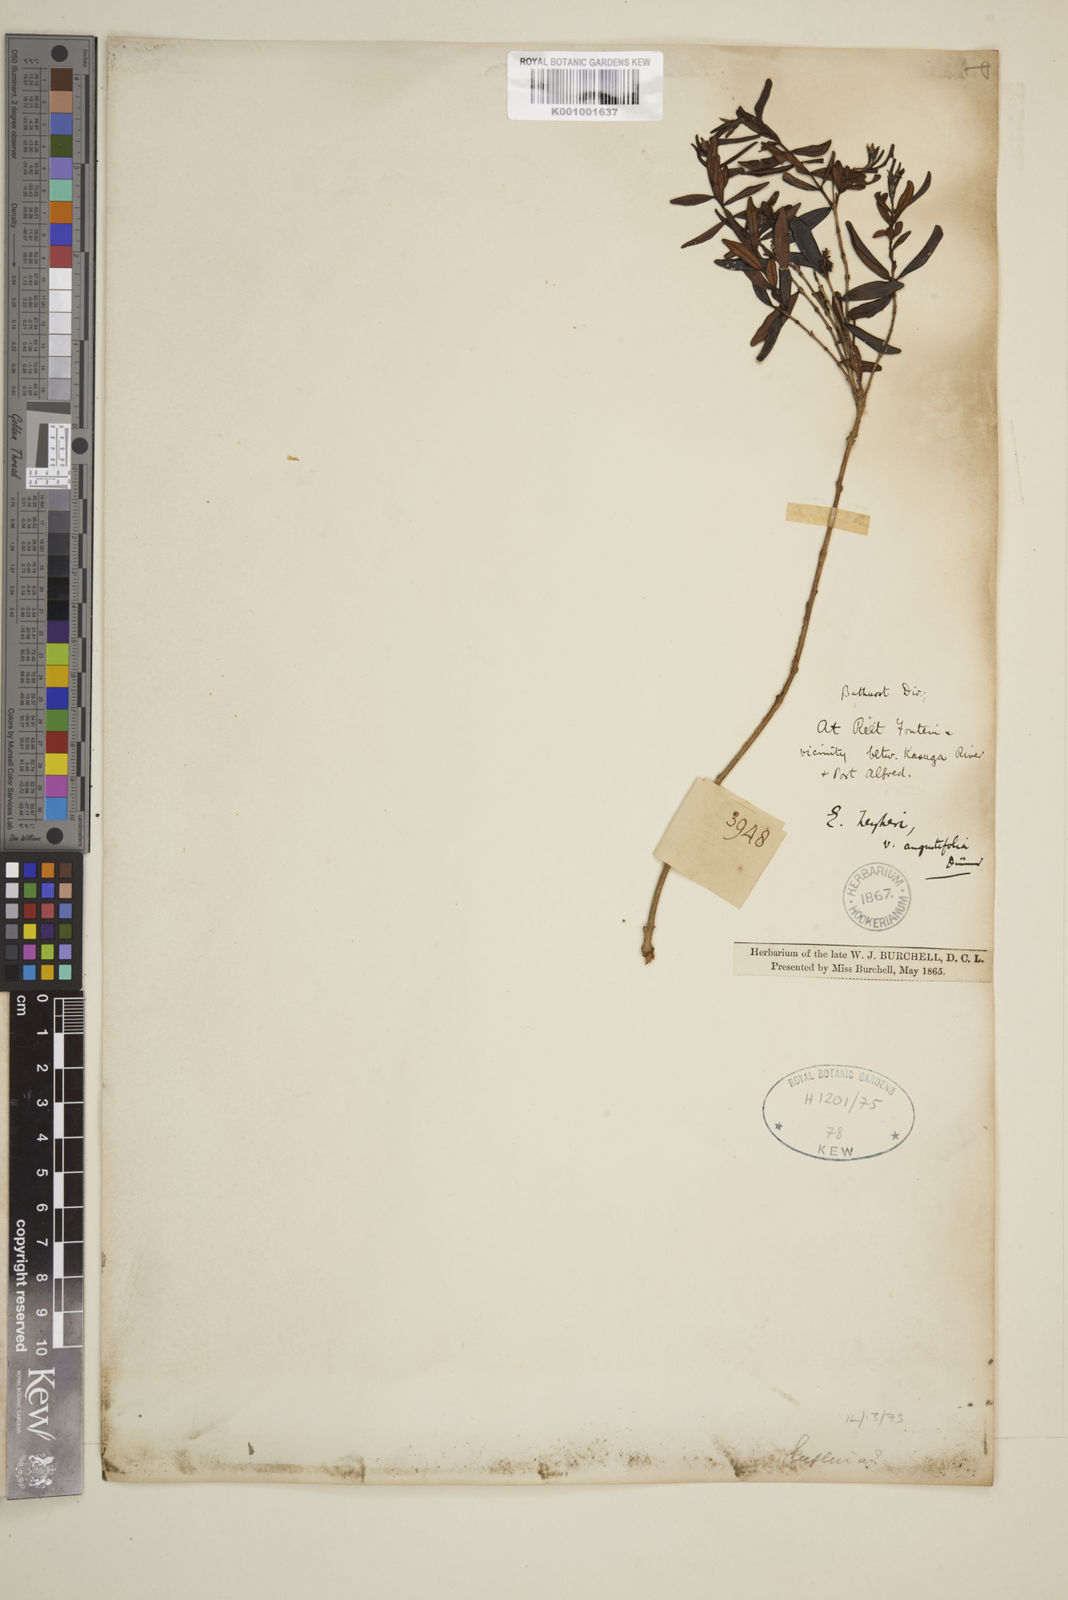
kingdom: Plantae
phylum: Tracheophyta
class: Magnoliopsida
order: Myrtales
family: Myrtaceae
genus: Eugenia
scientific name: Eugenia zeyheri
